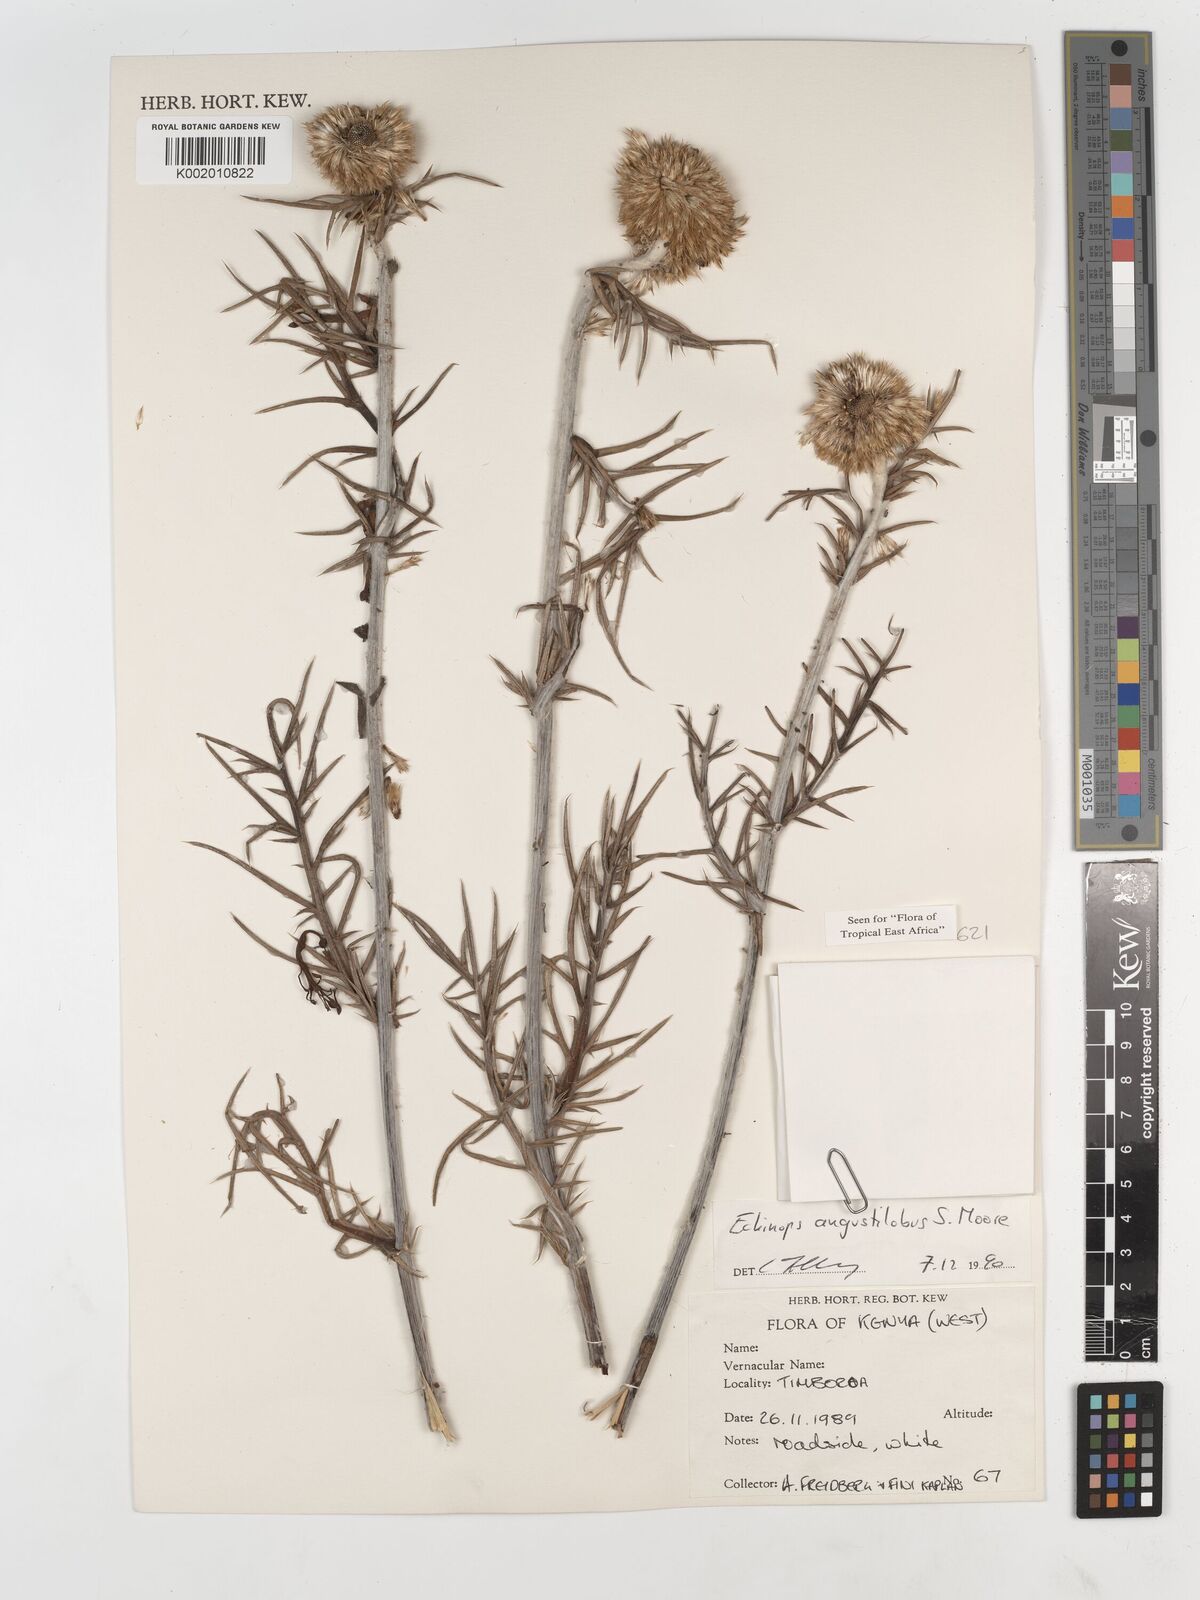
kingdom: Plantae
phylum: Tracheophyta
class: Magnoliopsida
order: Asterales
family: Asteraceae
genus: Echinops
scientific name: Echinops angustilobus
